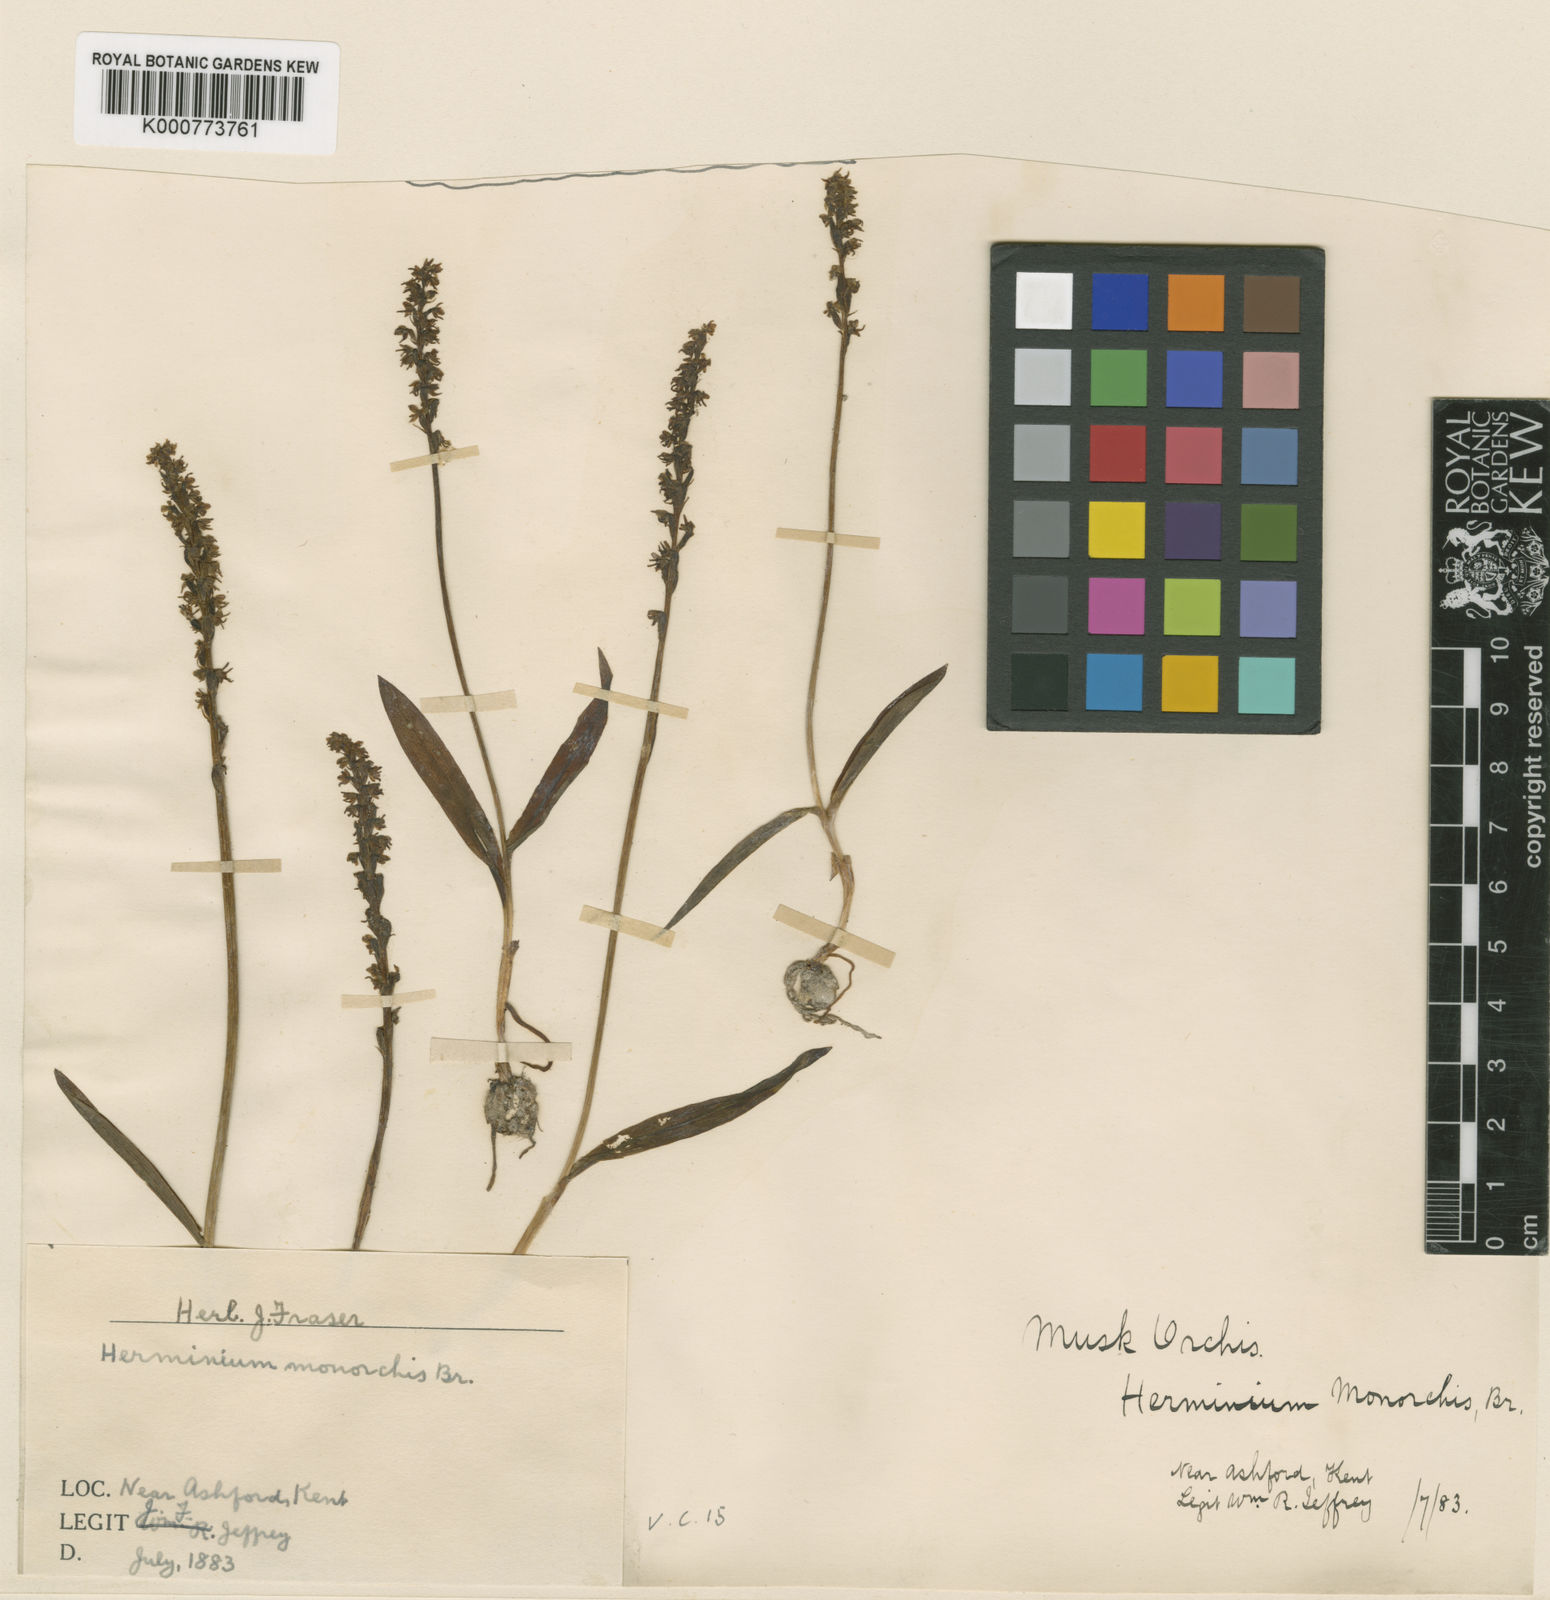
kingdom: Plantae
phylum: Tracheophyta
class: Liliopsida
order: Asparagales
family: Orchidaceae
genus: Herminium
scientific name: Herminium monorchis
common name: Musk orchid
